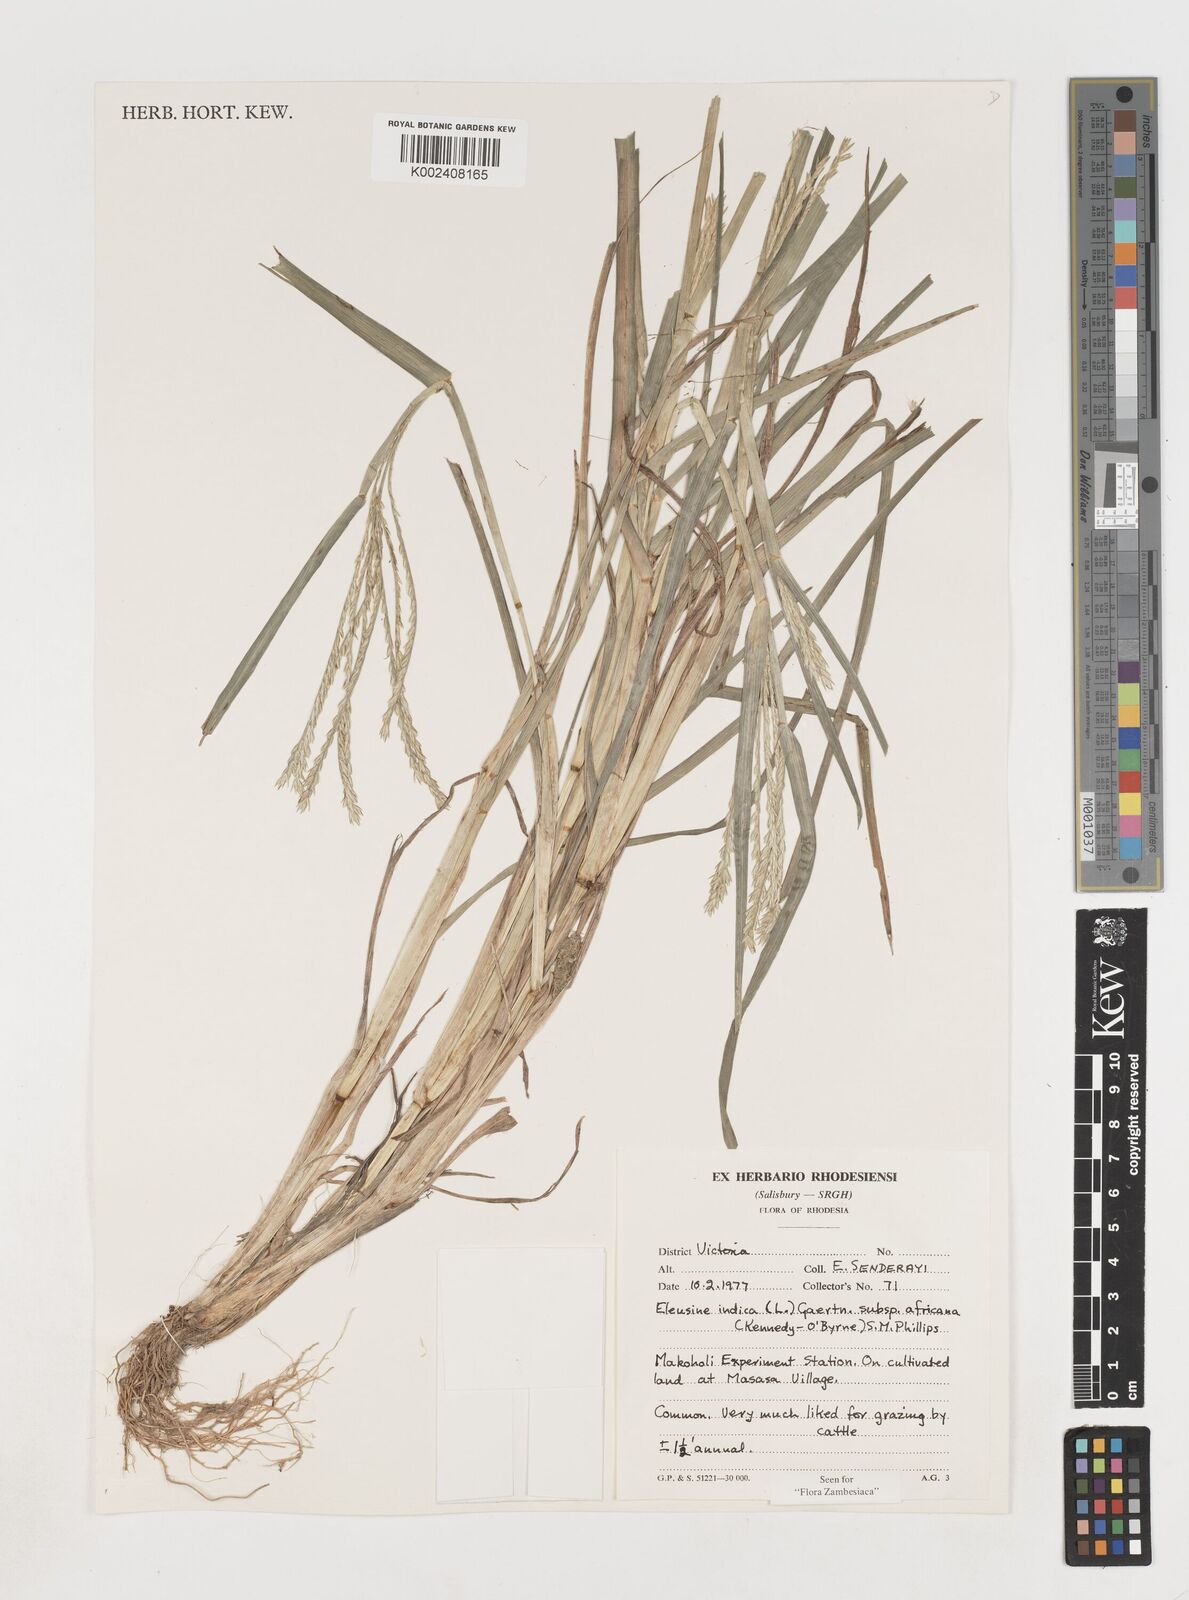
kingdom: Plantae
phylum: Tracheophyta
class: Liliopsida
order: Poales
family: Poaceae
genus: Eleusine
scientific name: Eleusine africana
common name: Wild african finger millet
